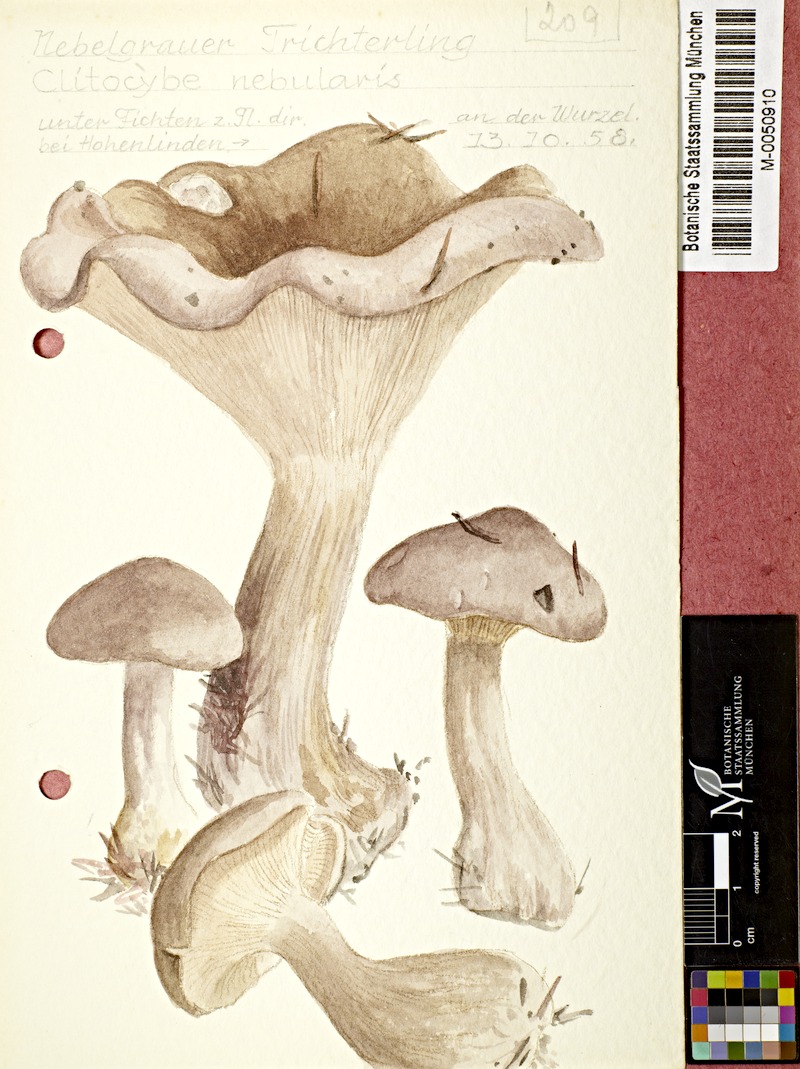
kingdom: Fungi
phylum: Basidiomycota
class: Agaricomycetes
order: Agaricales
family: Tricholomataceae
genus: Clitocybe
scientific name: Clitocybe nebularis
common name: Clouded agaric
